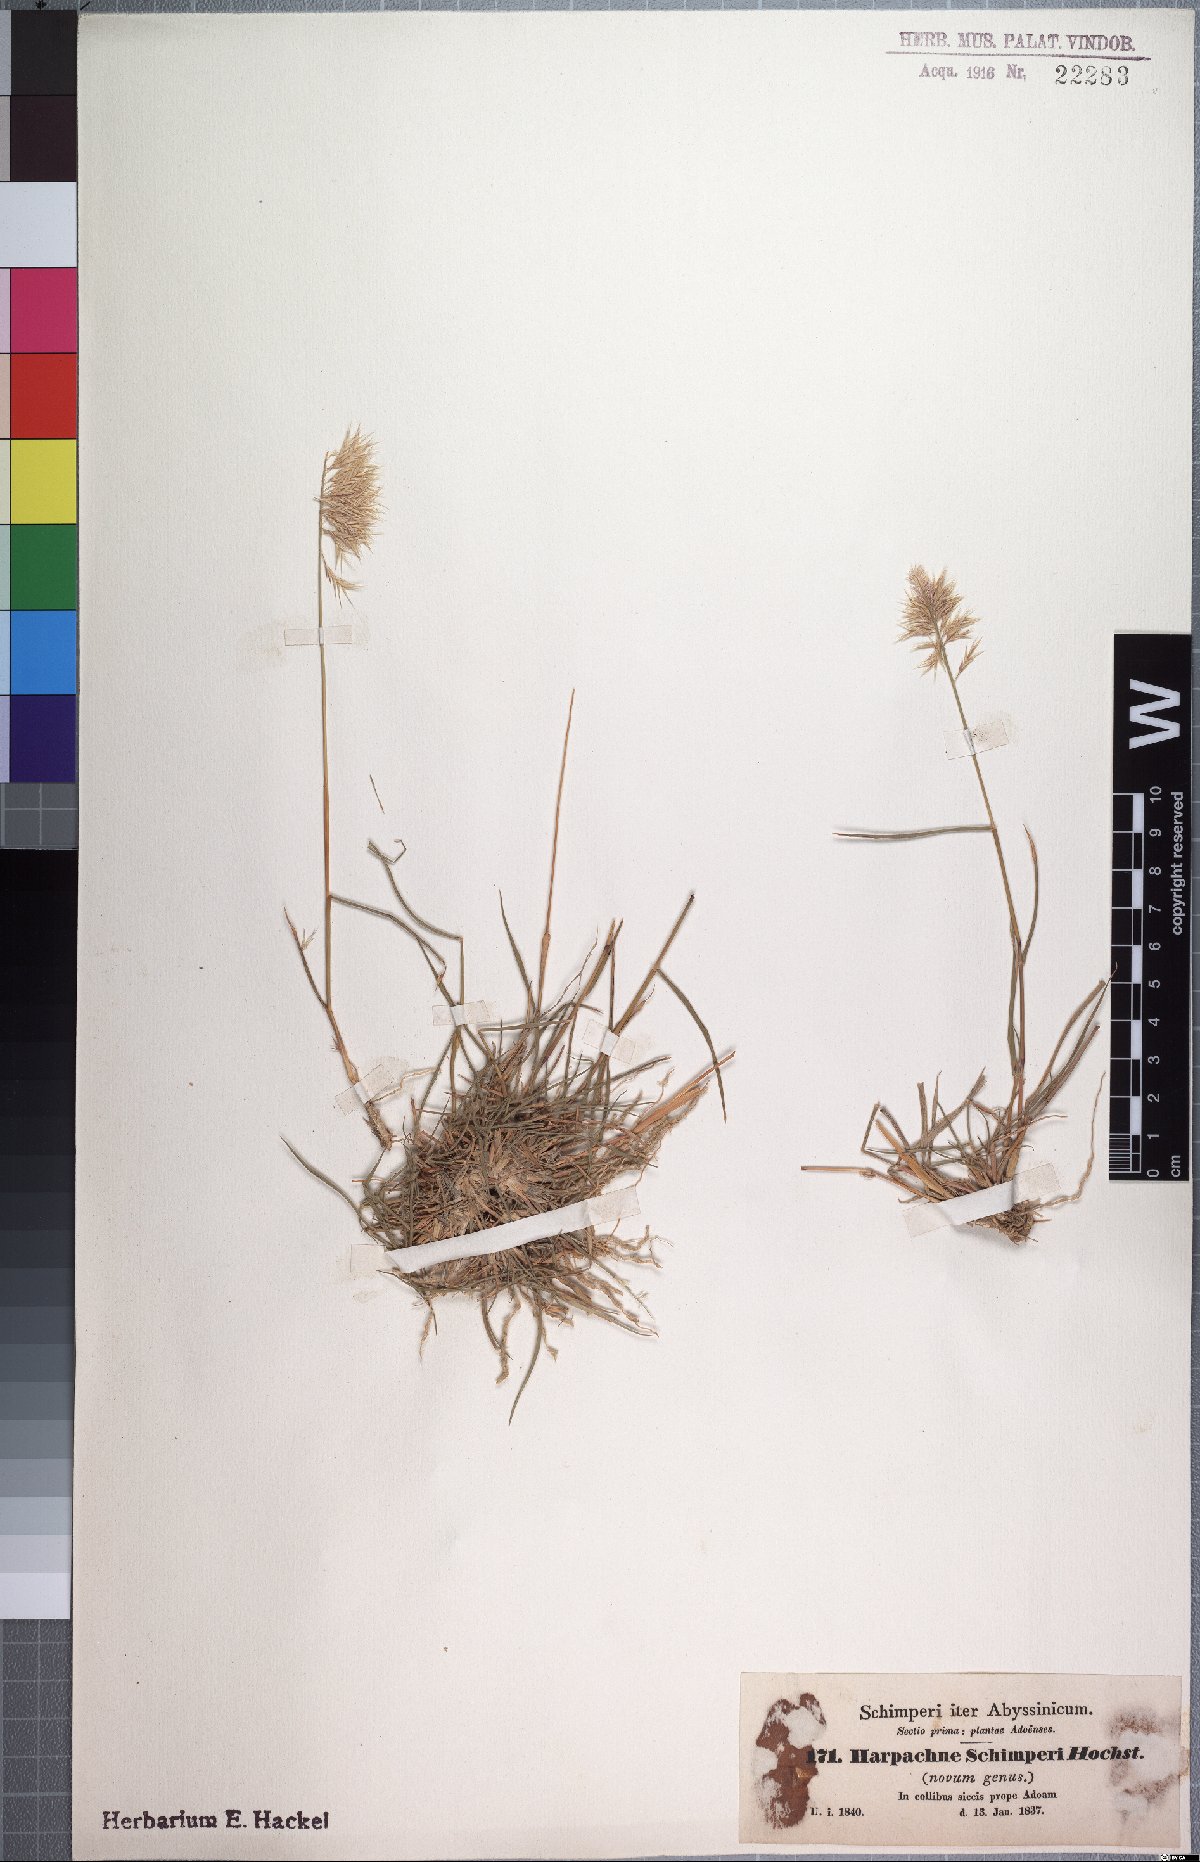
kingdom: Plantae
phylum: Tracheophyta
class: Liliopsida
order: Poales
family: Poaceae
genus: Harpachne
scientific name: Harpachne schimperi
